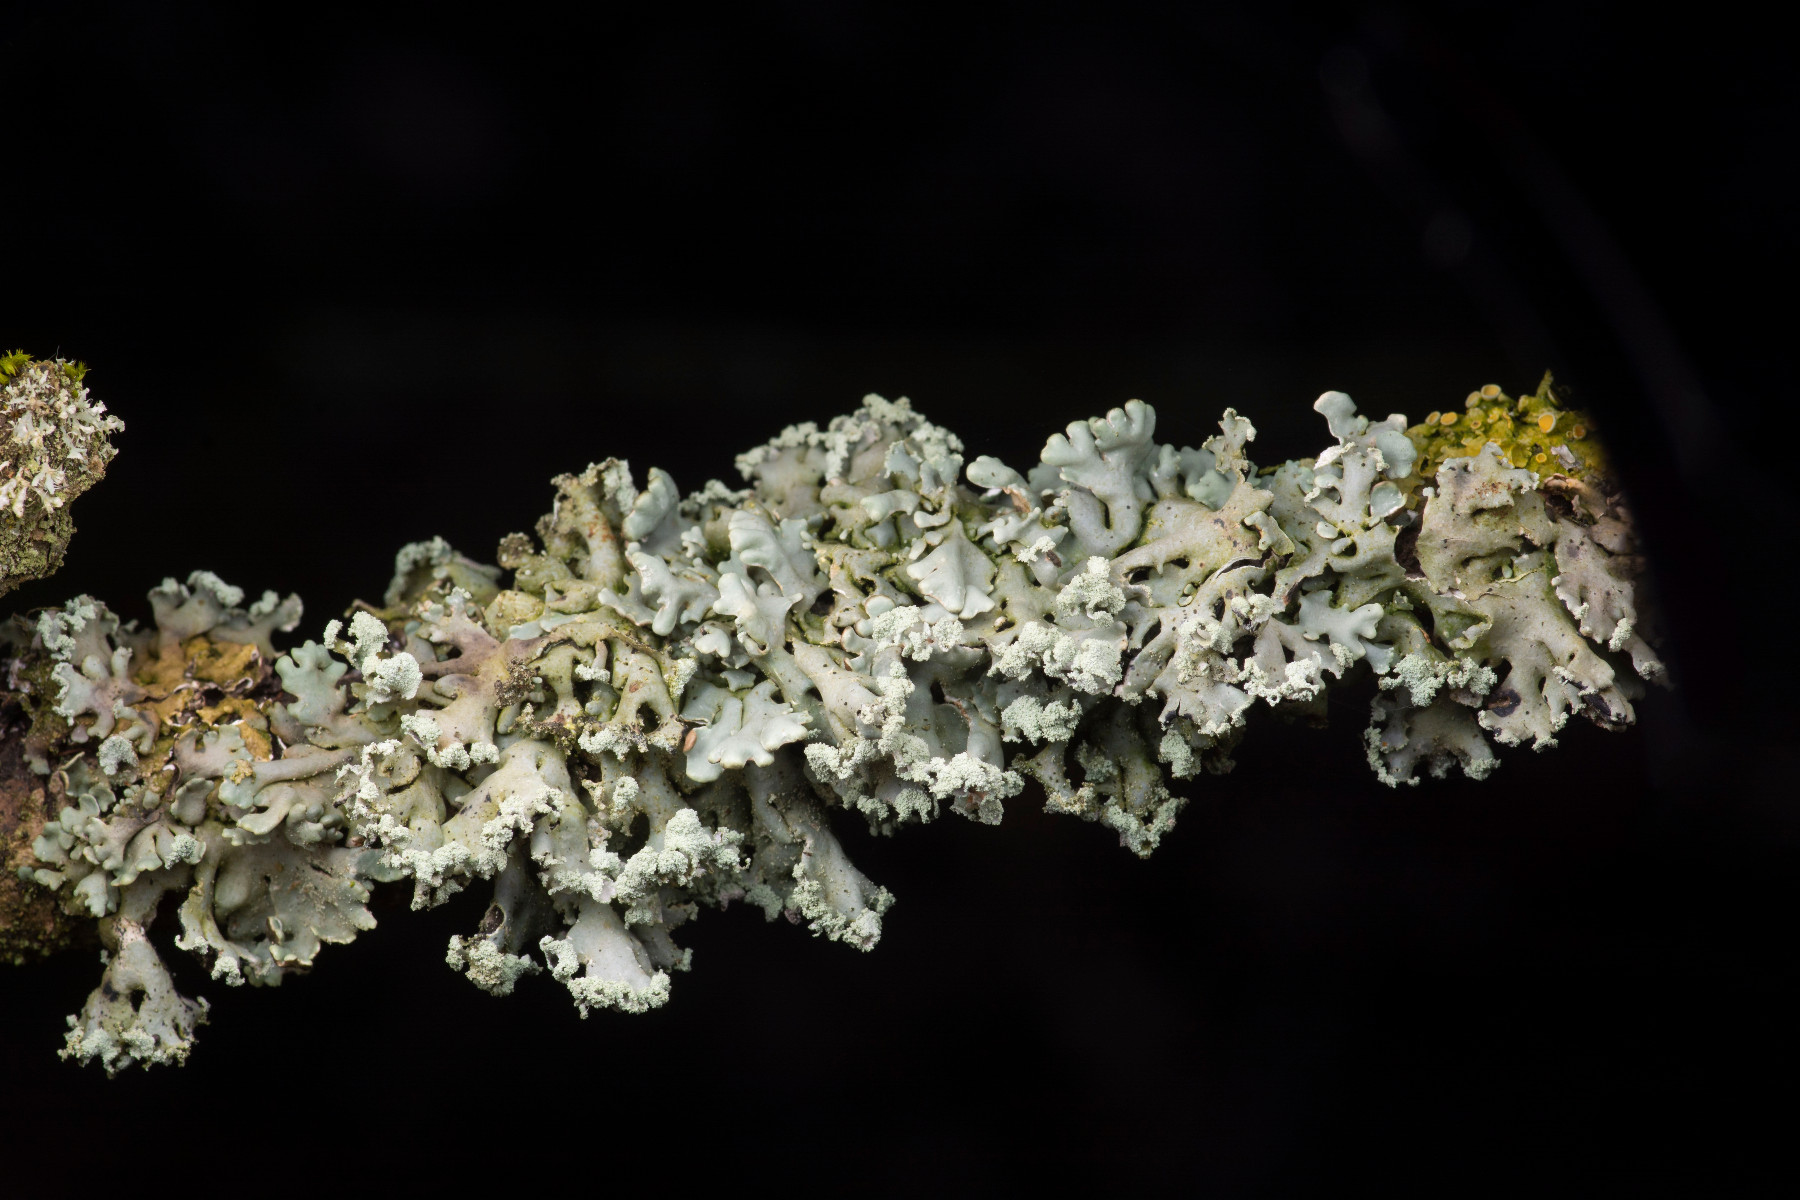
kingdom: Fungi
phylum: Ascomycota
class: Lecanoromycetes
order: Lecanorales
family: Parmeliaceae
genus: Hypogymnia
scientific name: Hypogymnia physodes
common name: almindelig kvistlav
